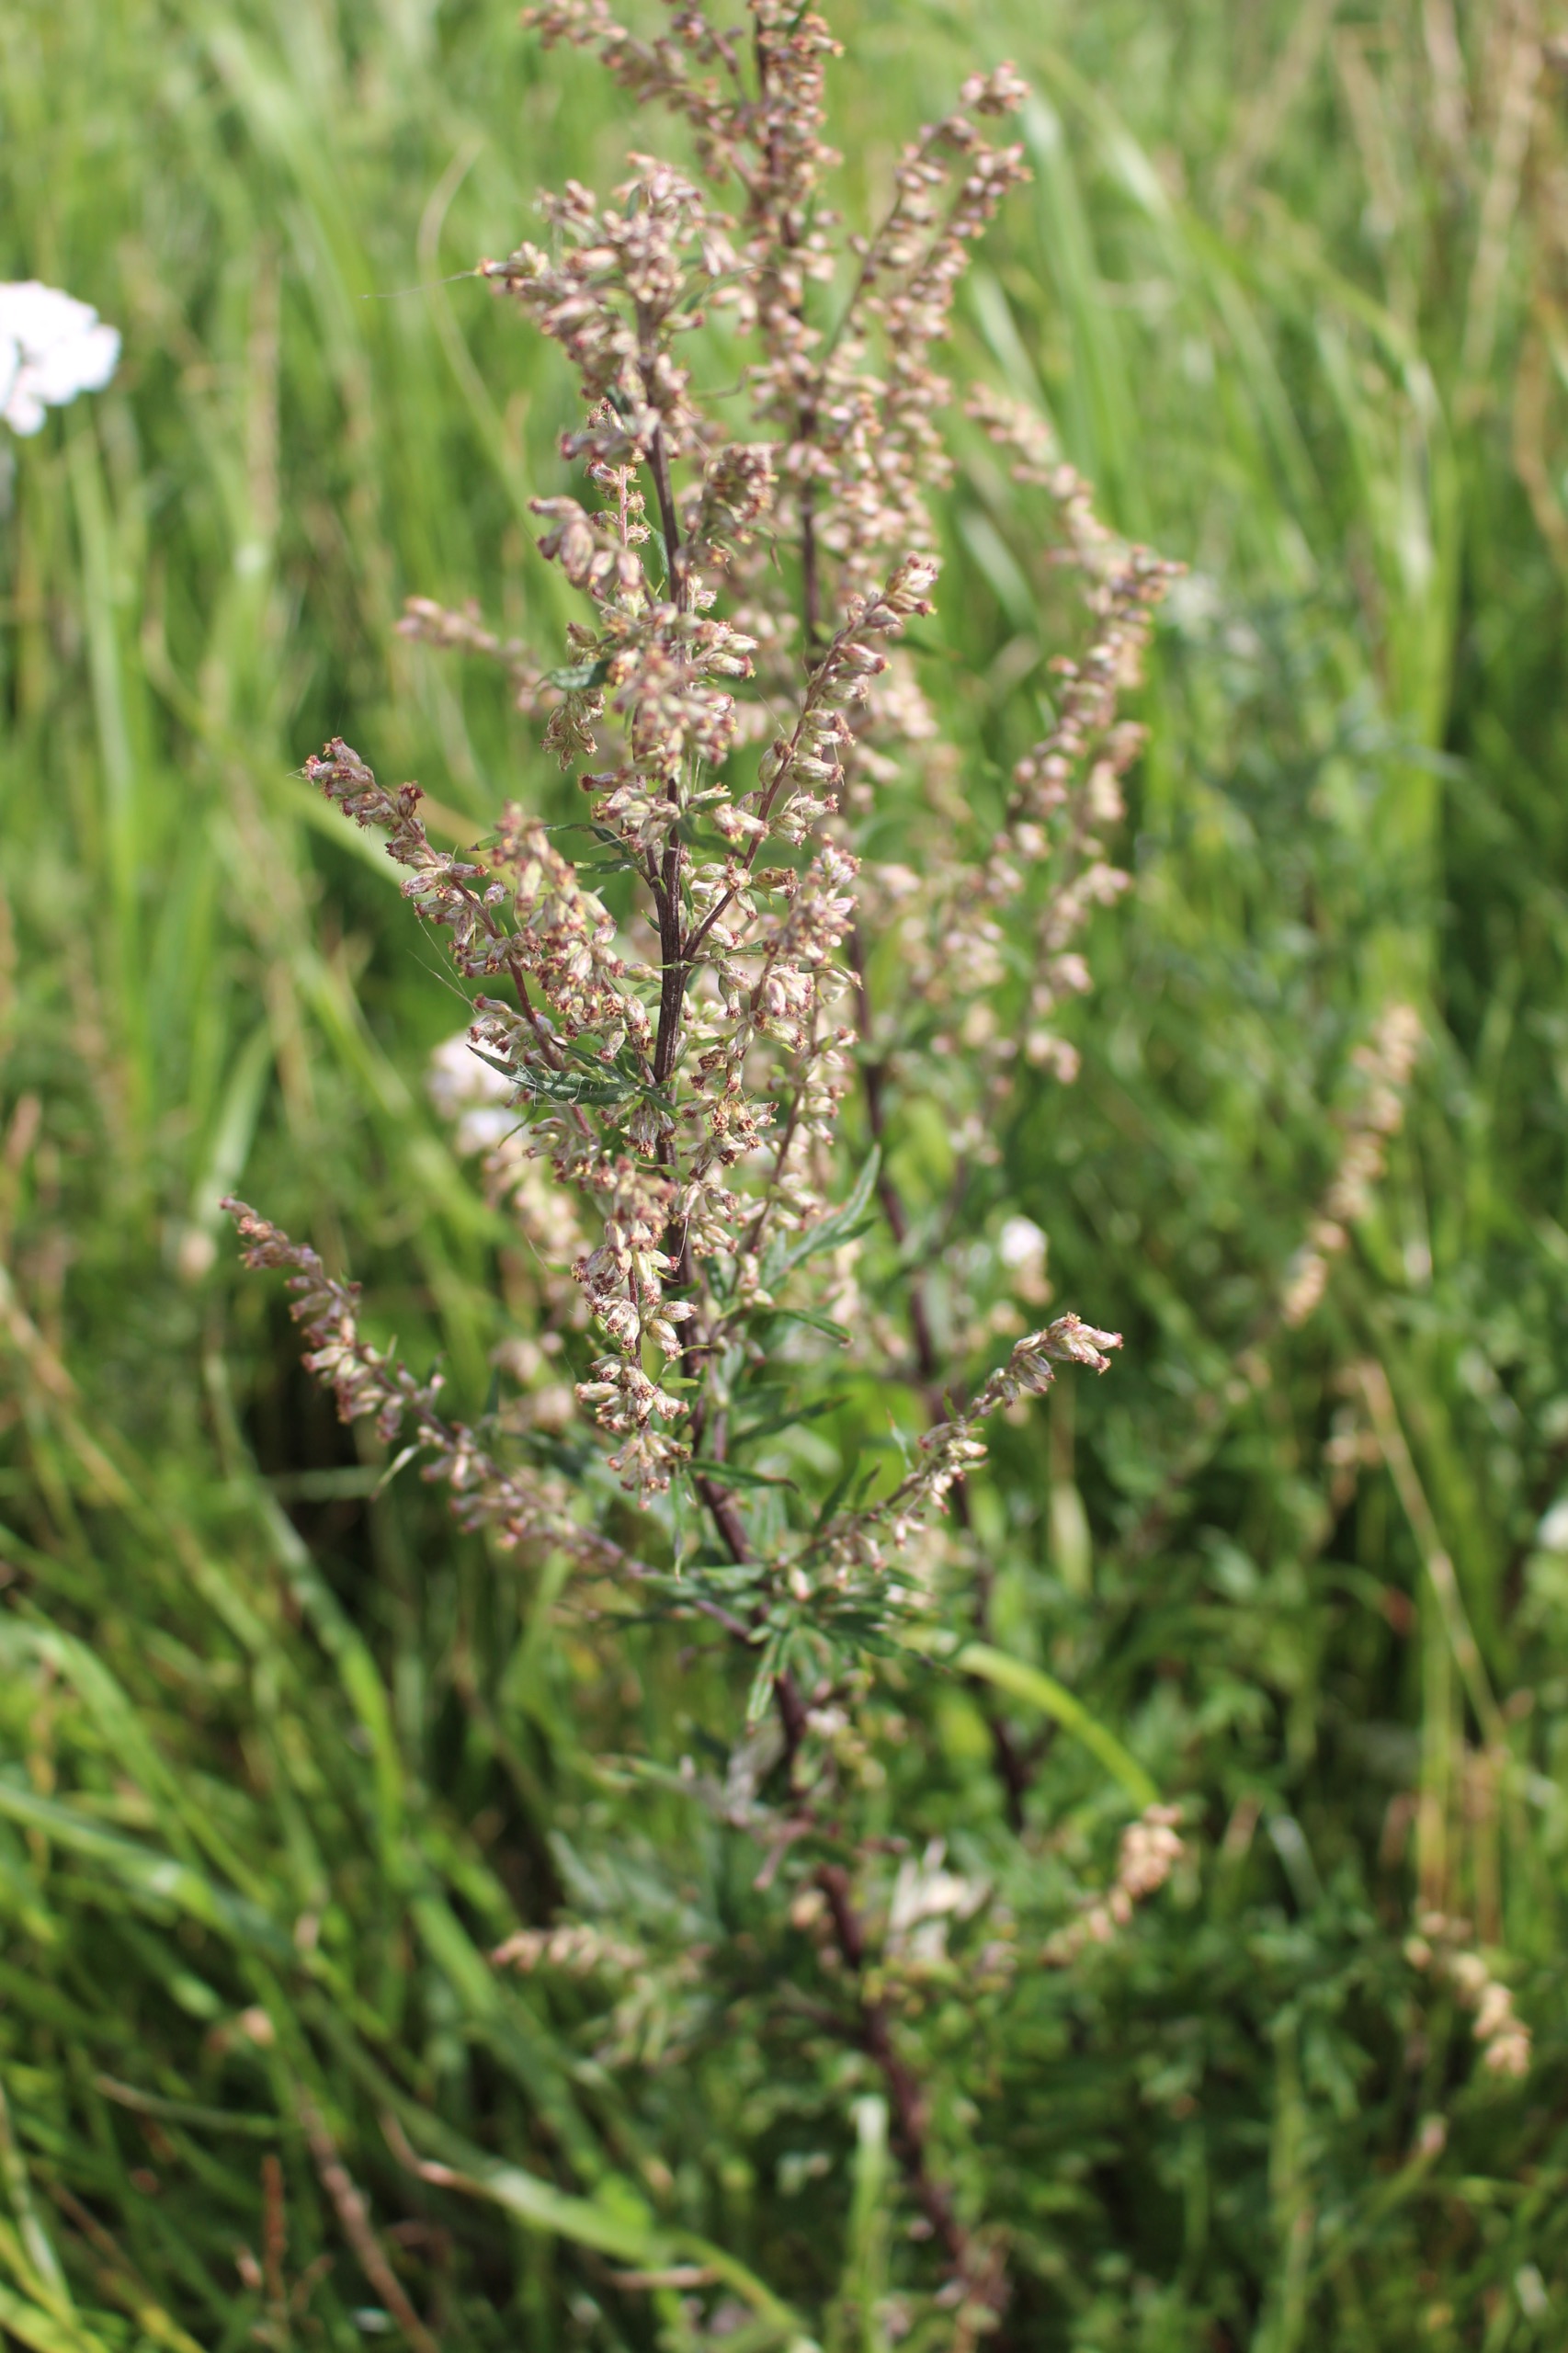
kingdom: Plantae
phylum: Tracheophyta
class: Magnoliopsida
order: Asterales
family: Asteraceae
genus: Artemisia
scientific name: Artemisia vulgaris
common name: Grå-bynke
